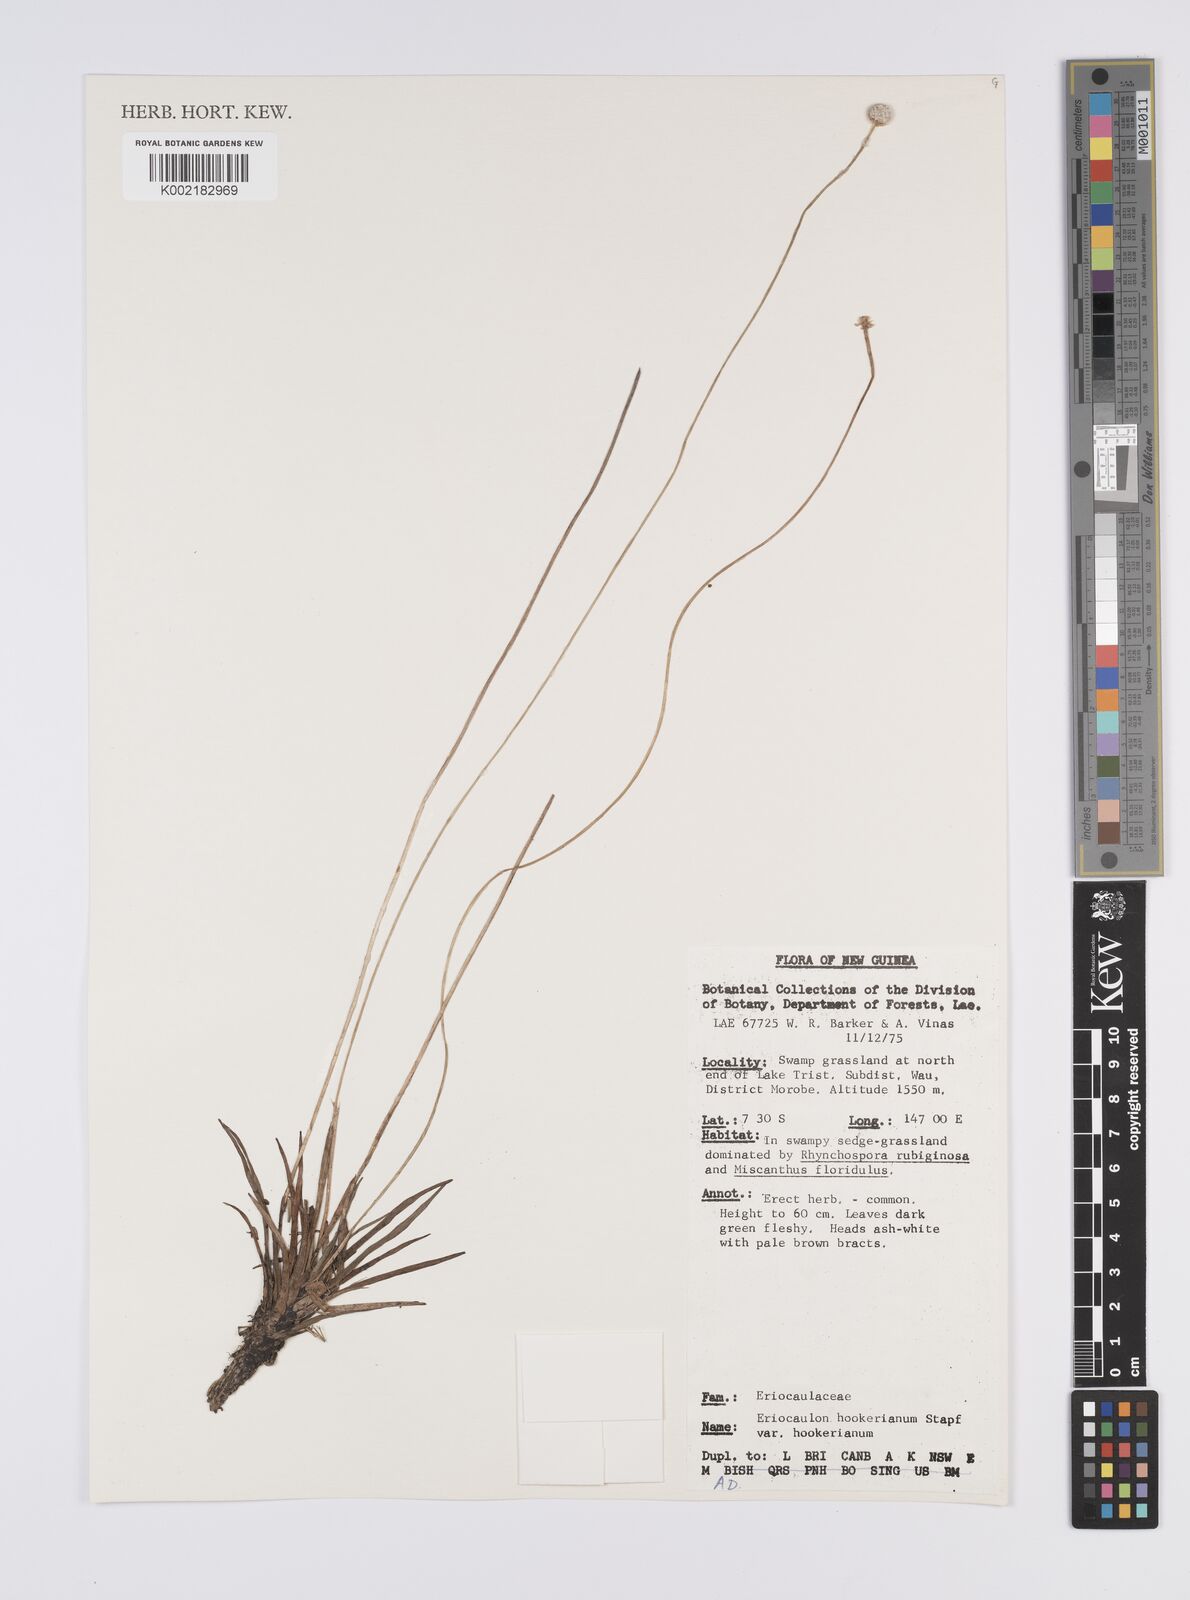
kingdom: Plantae
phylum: Tracheophyta
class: Liliopsida
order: Poales
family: Eriocaulaceae
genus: Eriocaulon
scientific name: Eriocaulon hookerianum
